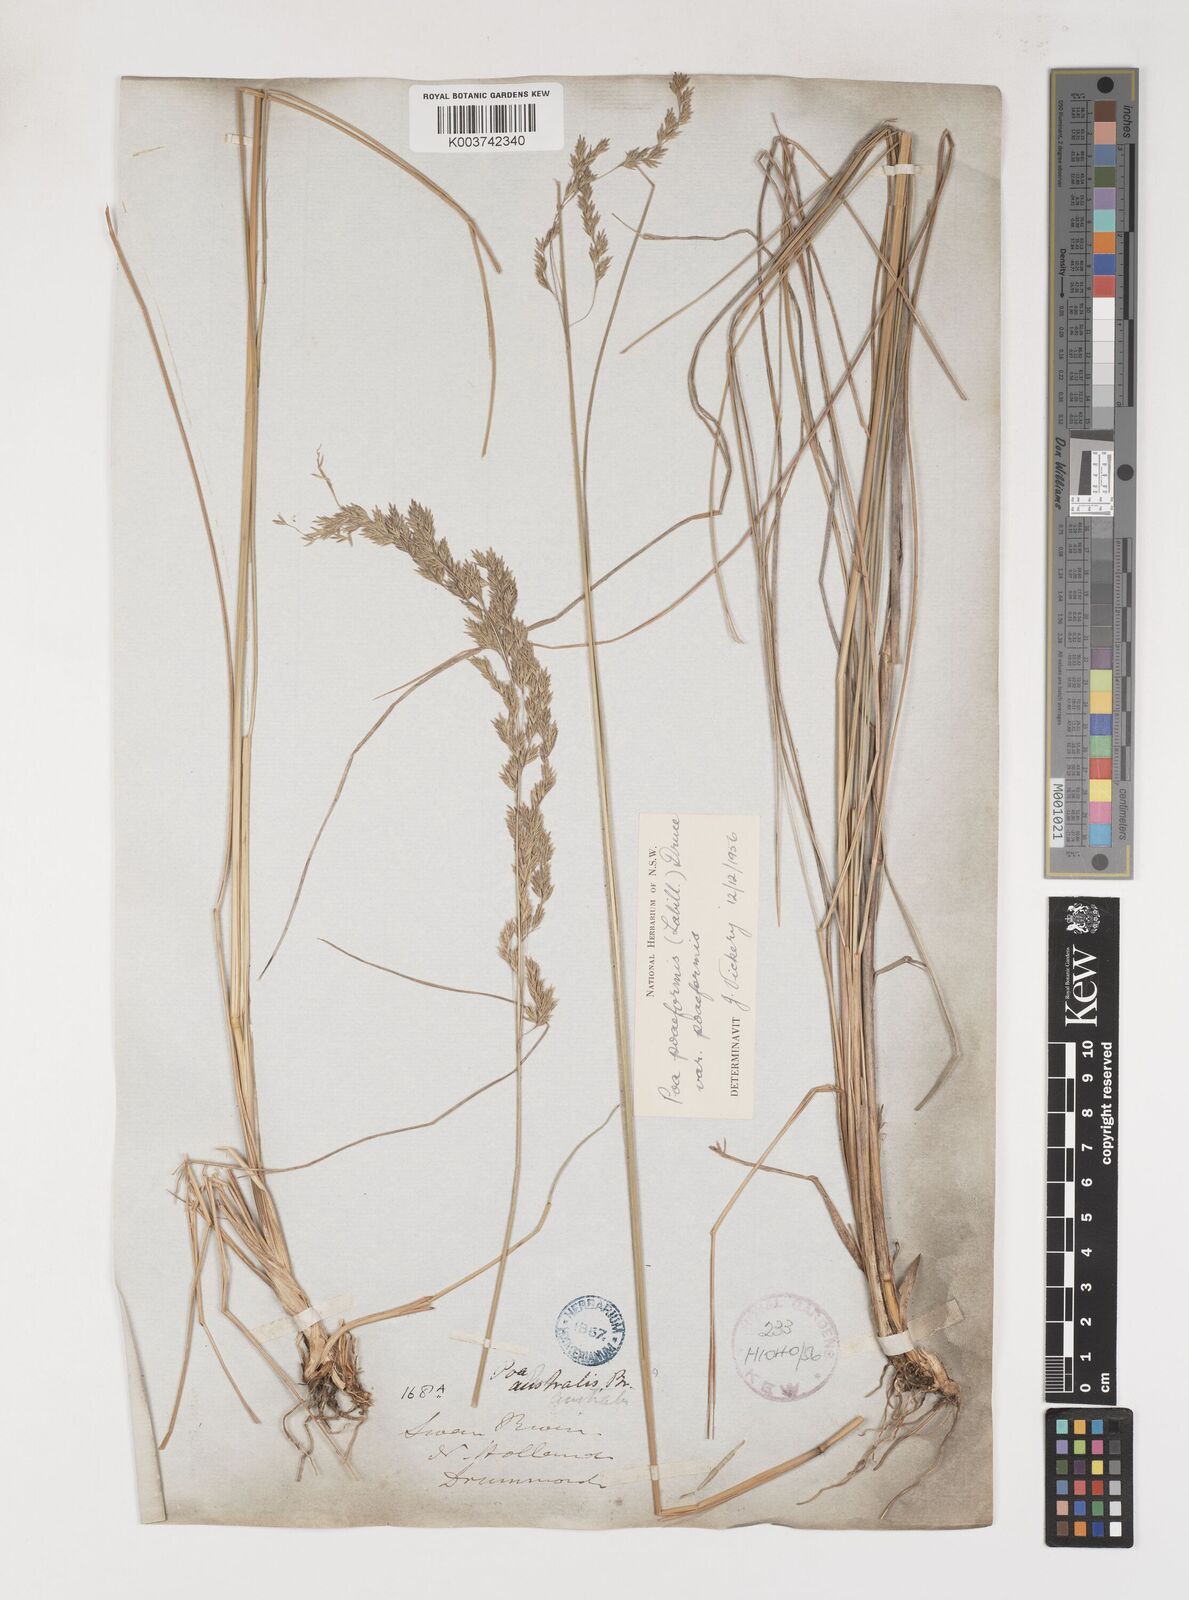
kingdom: Plantae
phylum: Tracheophyta
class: Liliopsida
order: Poales
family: Poaceae
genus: Poa
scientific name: Poa poiformis
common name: Tussock poa
